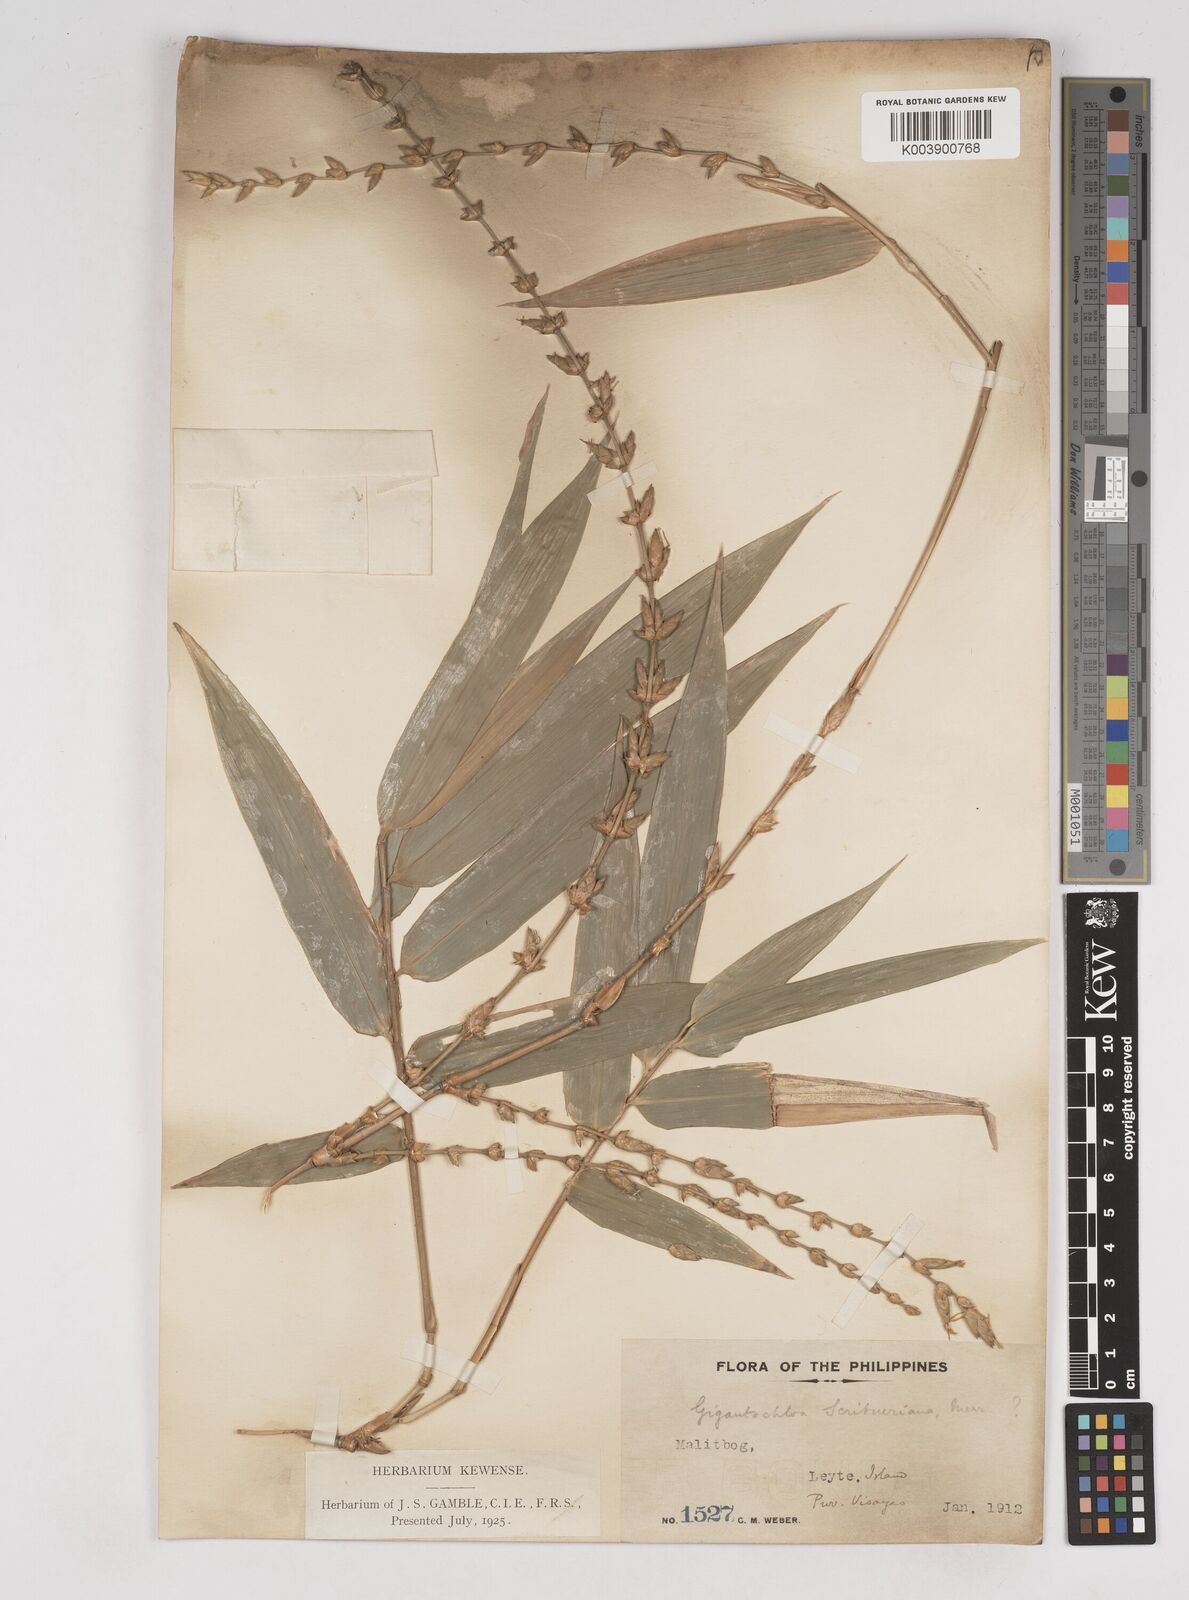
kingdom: Plantae
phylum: Tracheophyta
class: Liliopsida
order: Poales
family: Poaceae
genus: Gigantochloa
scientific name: Gigantochloa levis
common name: Smooth-shoot gigantochloa
